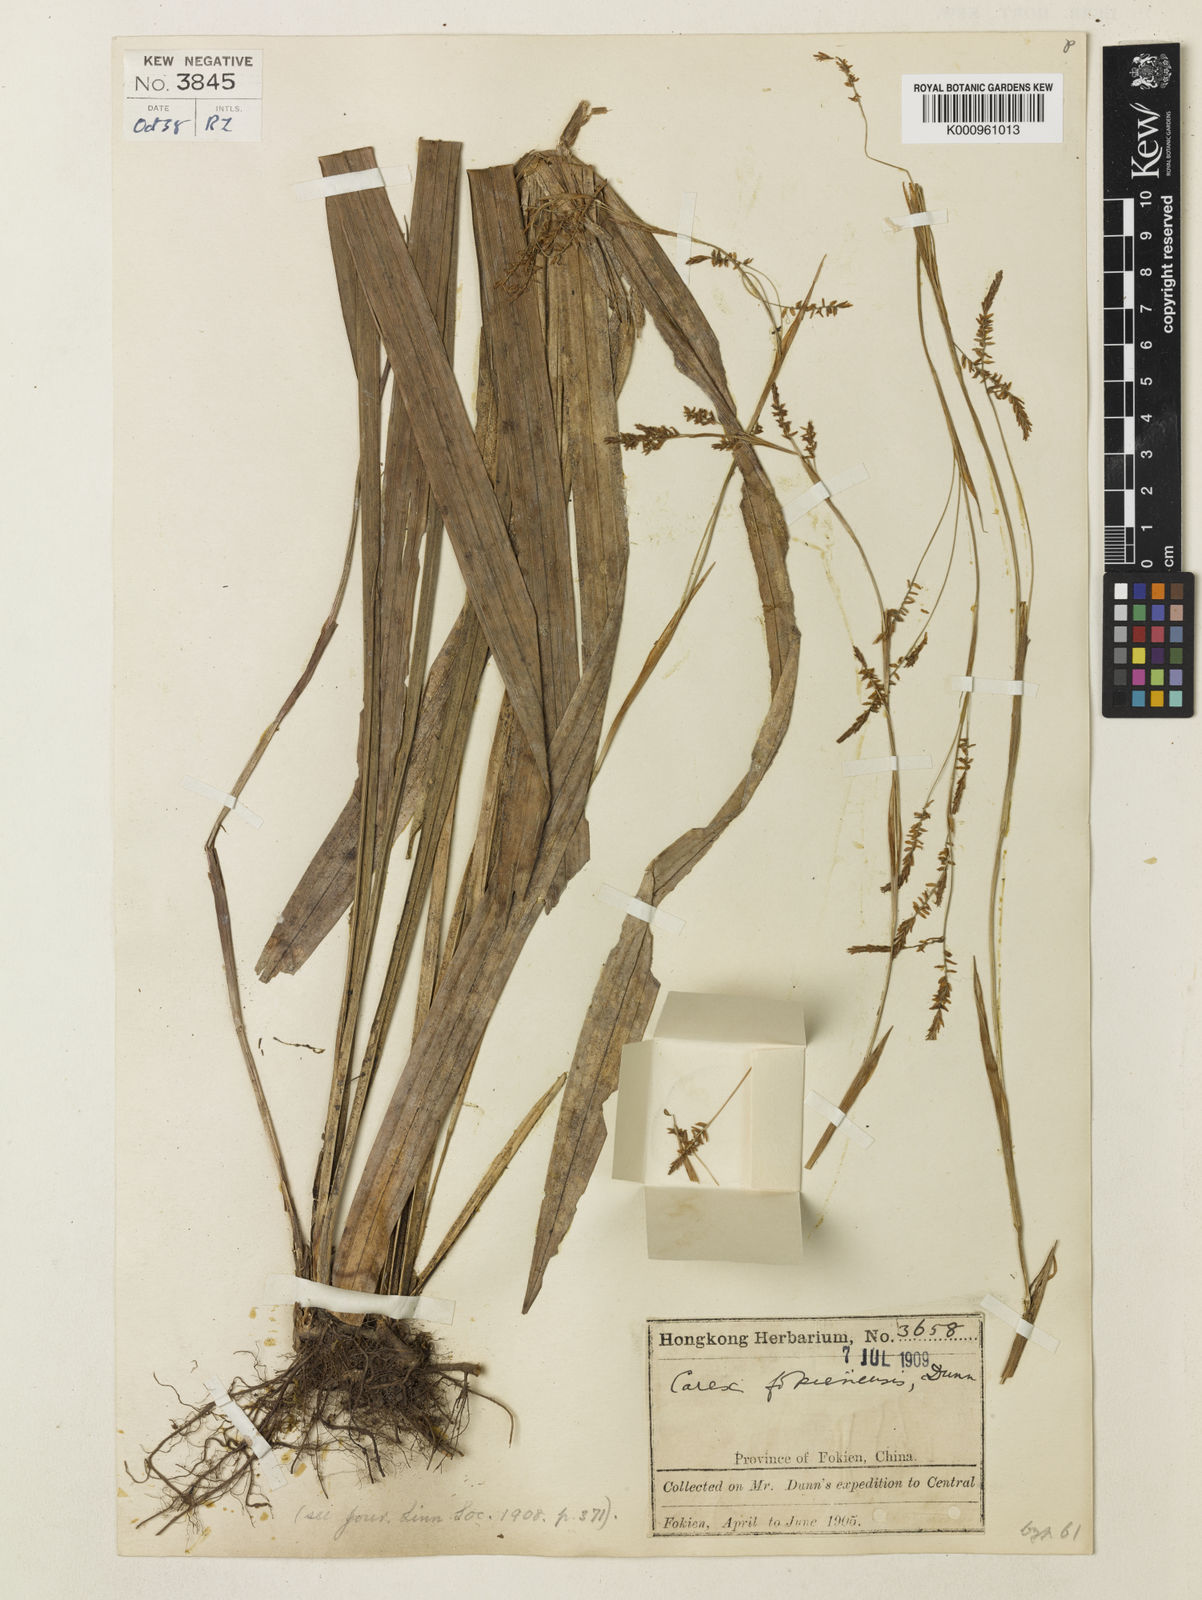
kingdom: Plantae
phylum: Tracheophyta
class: Liliopsida
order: Poales
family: Cyperaceae
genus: Carex
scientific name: Carex fokienensis
